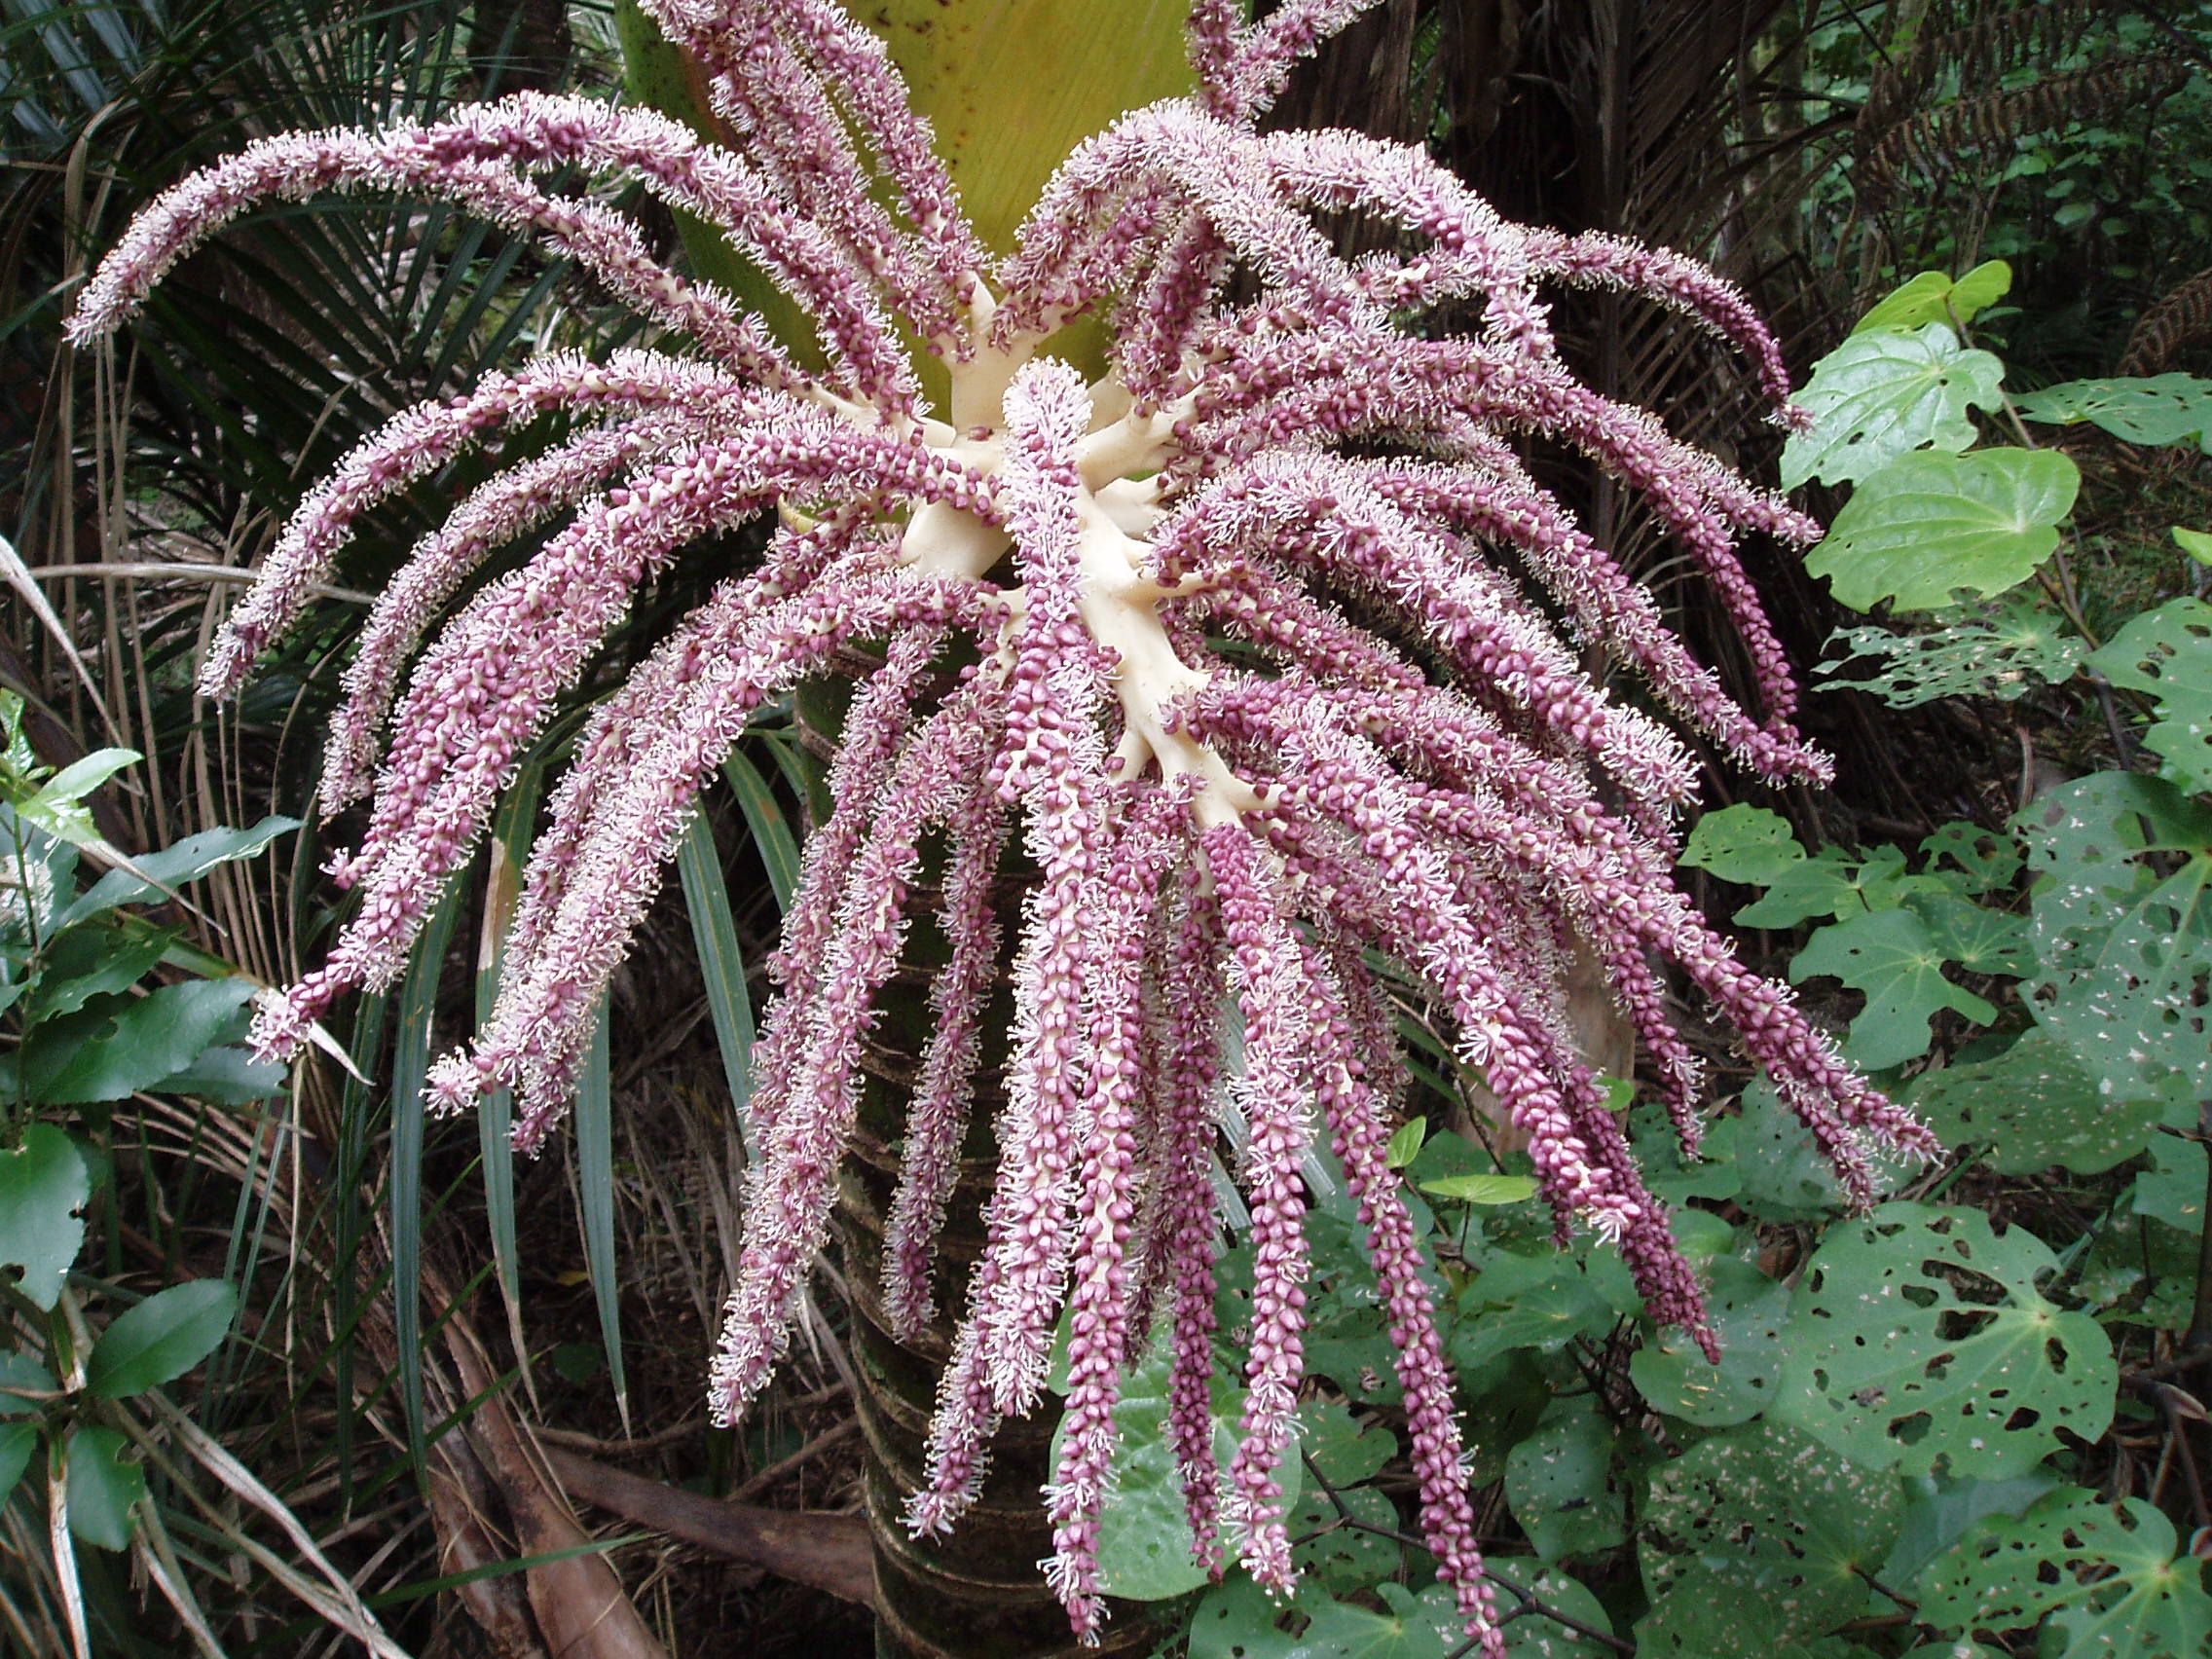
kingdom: Plantae
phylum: Tracheophyta
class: Liliopsida
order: Arecales
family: Arecaceae
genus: Rhopalostylis
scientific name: Rhopalostylis sapida
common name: Feather-duster palm
